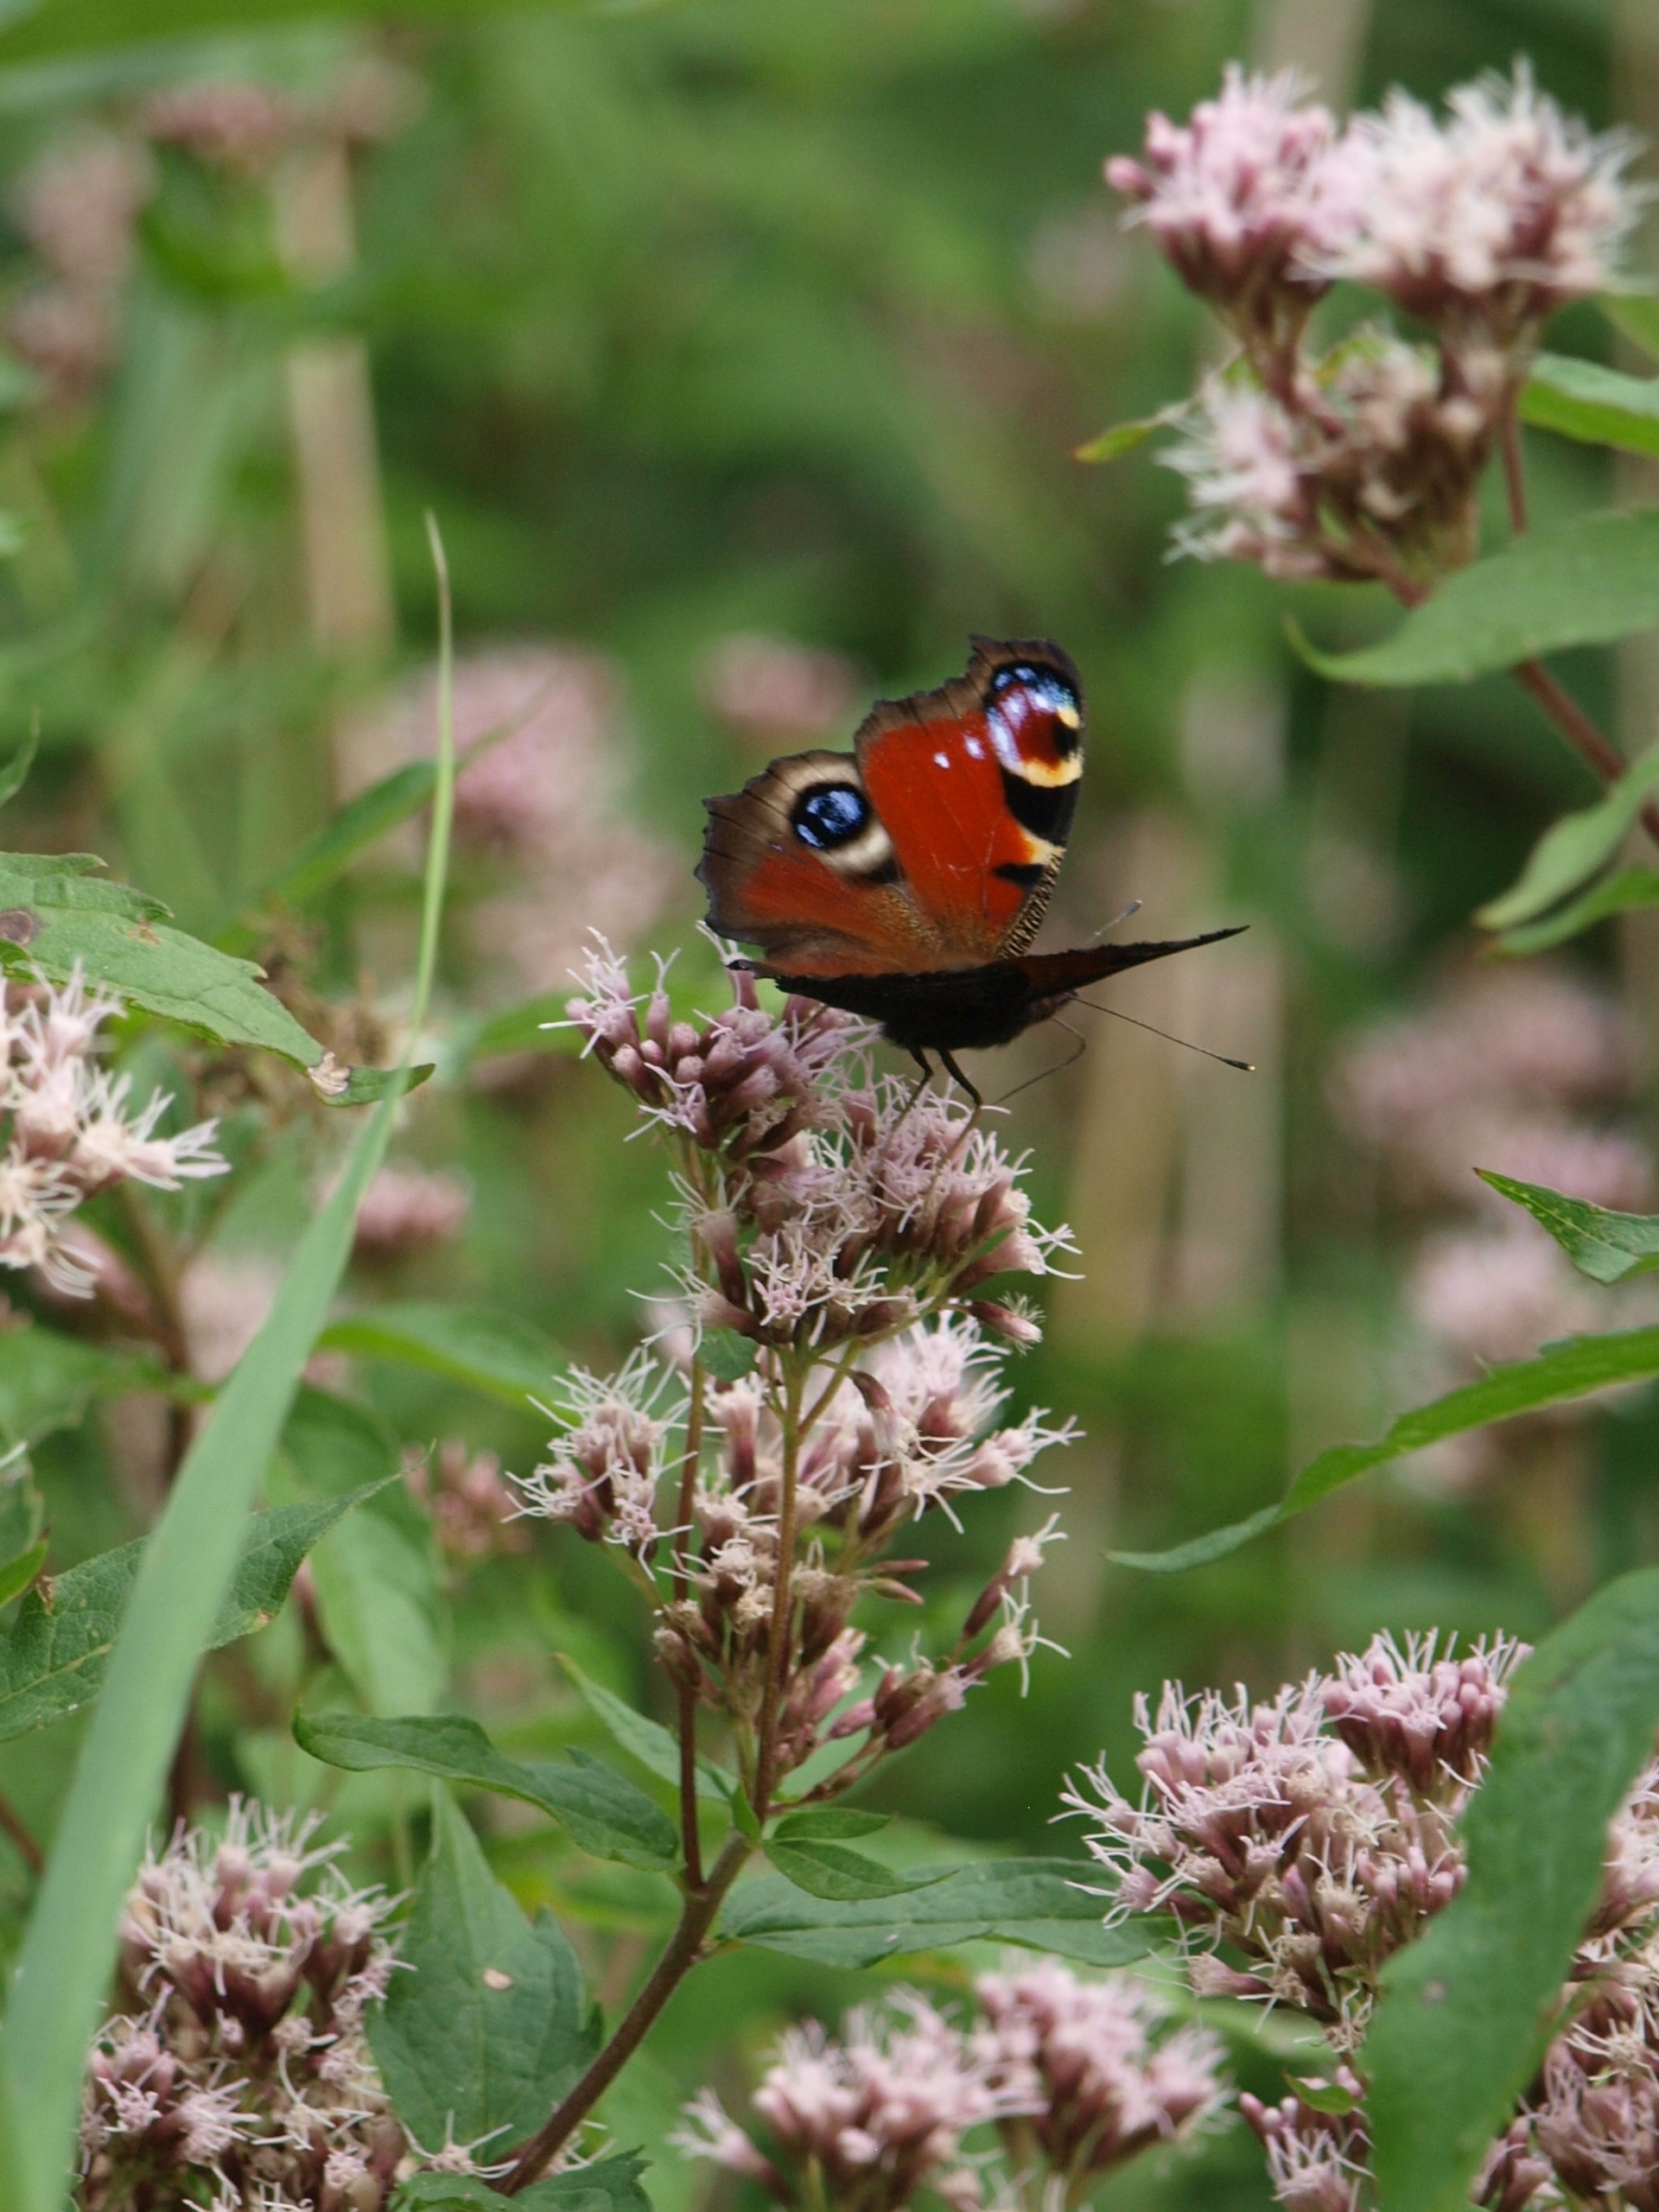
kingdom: Animalia
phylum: Arthropoda
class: Insecta
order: Lepidoptera
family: Nymphalidae
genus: Aglais
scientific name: Aglais io
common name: Dagpåfugleøje
